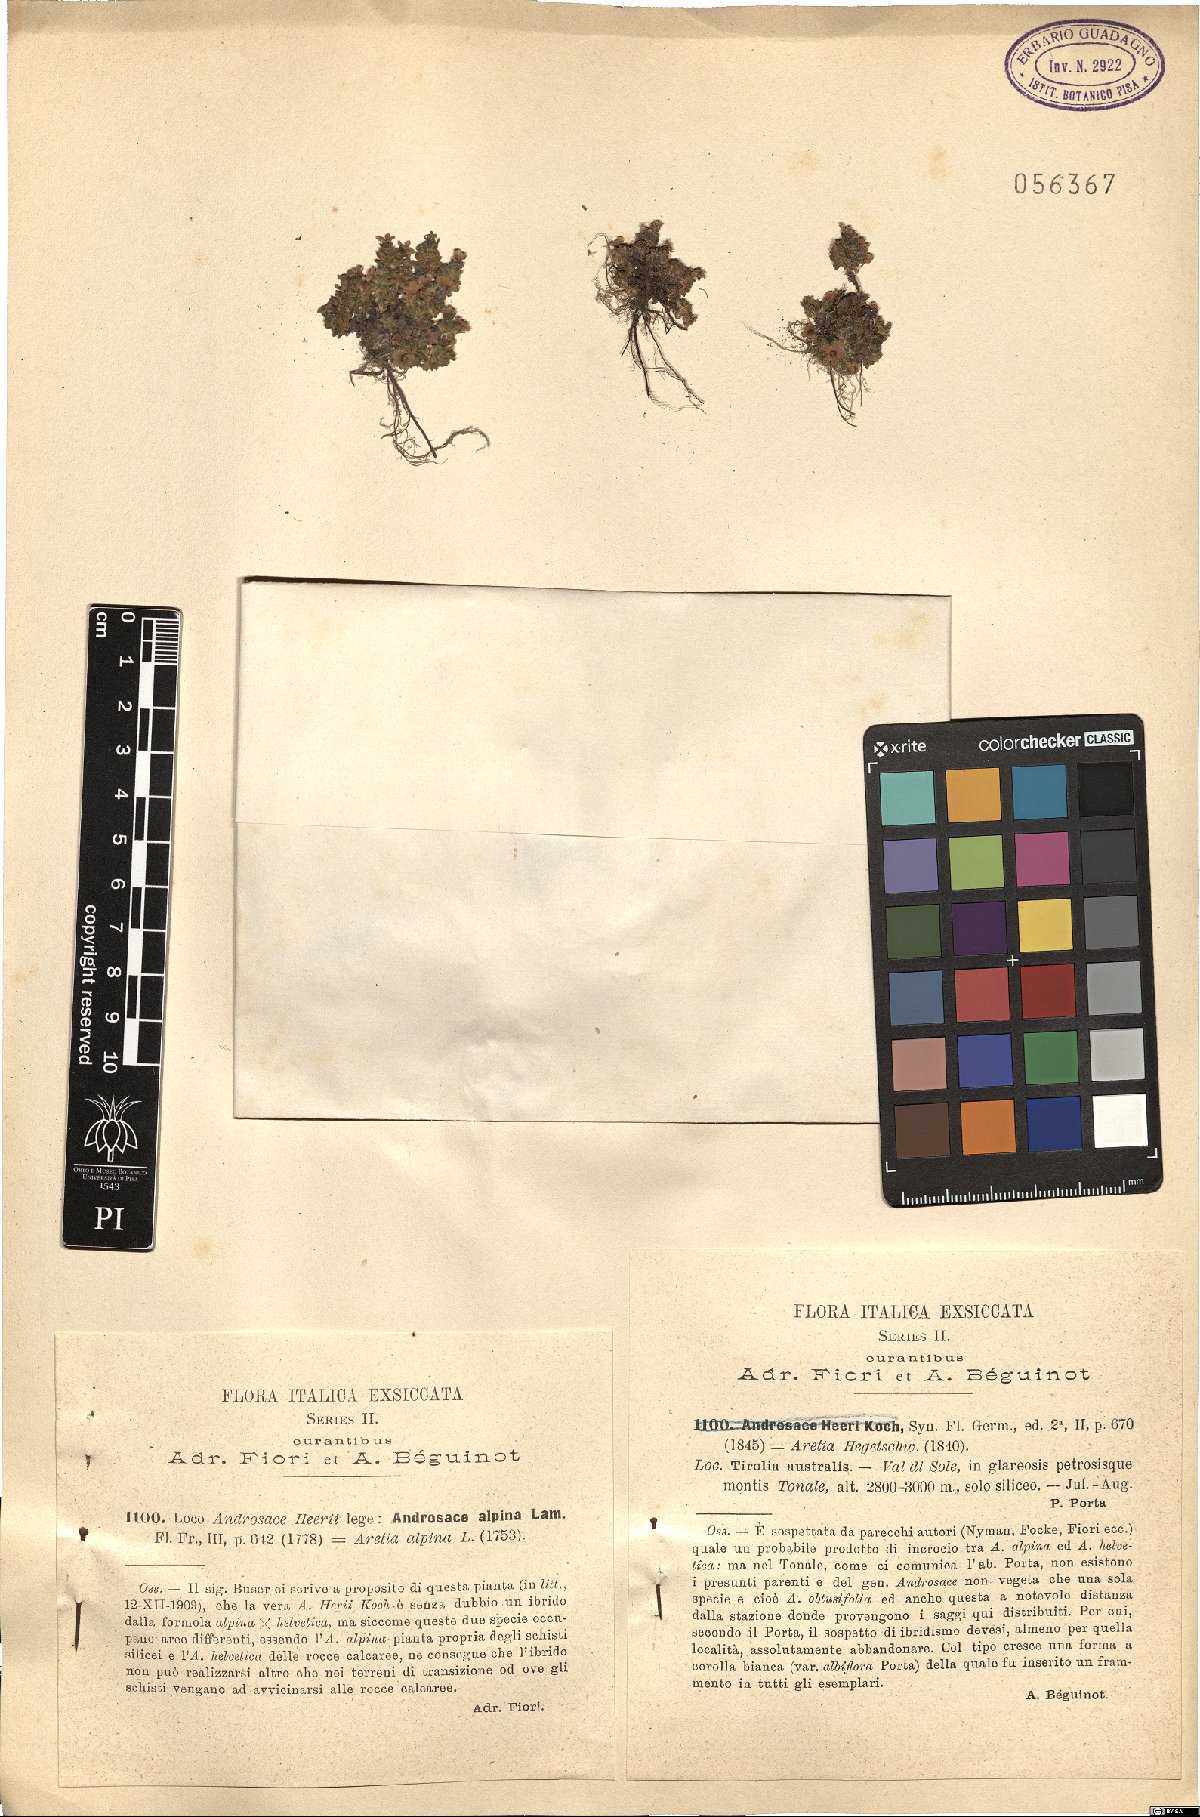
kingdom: Plantae
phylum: Tracheophyta
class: Magnoliopsida
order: Ericales
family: Primulaceae
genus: Androsace
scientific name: Androsace alpina
